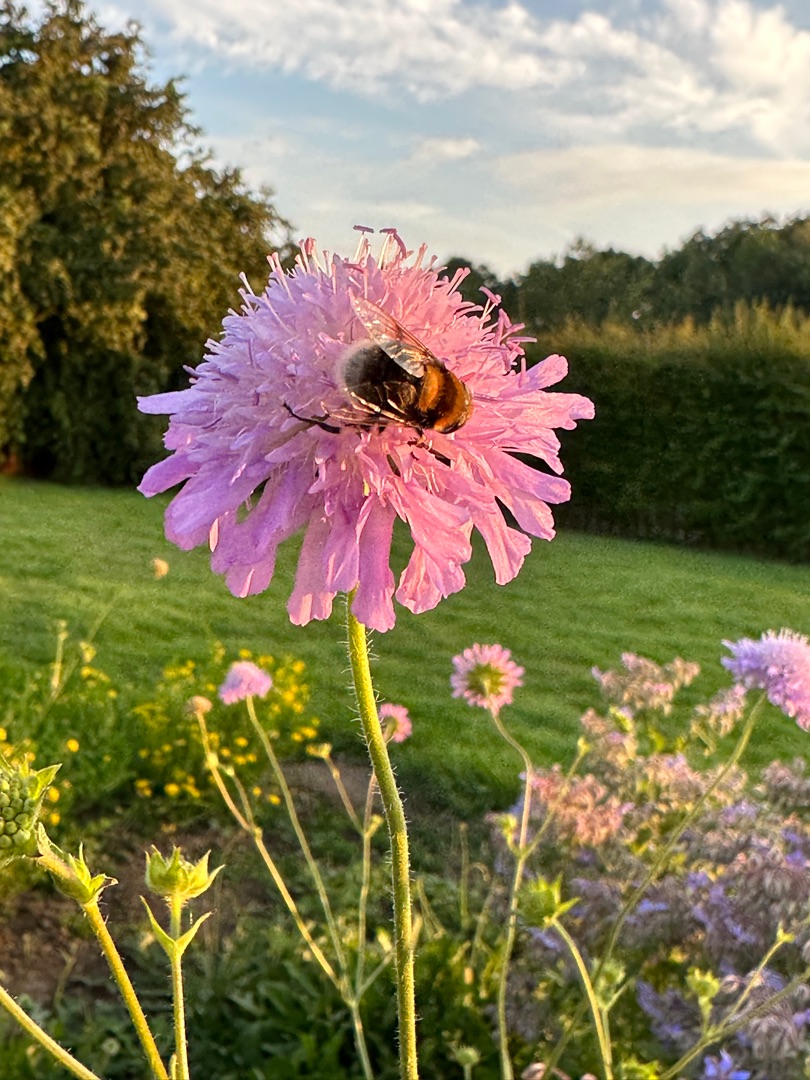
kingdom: Animalia
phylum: Arthropoda
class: Insecta
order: Diptera
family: Syrphidae
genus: Eristalis
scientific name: Eristalis intricaria
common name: Håret dyndflue
